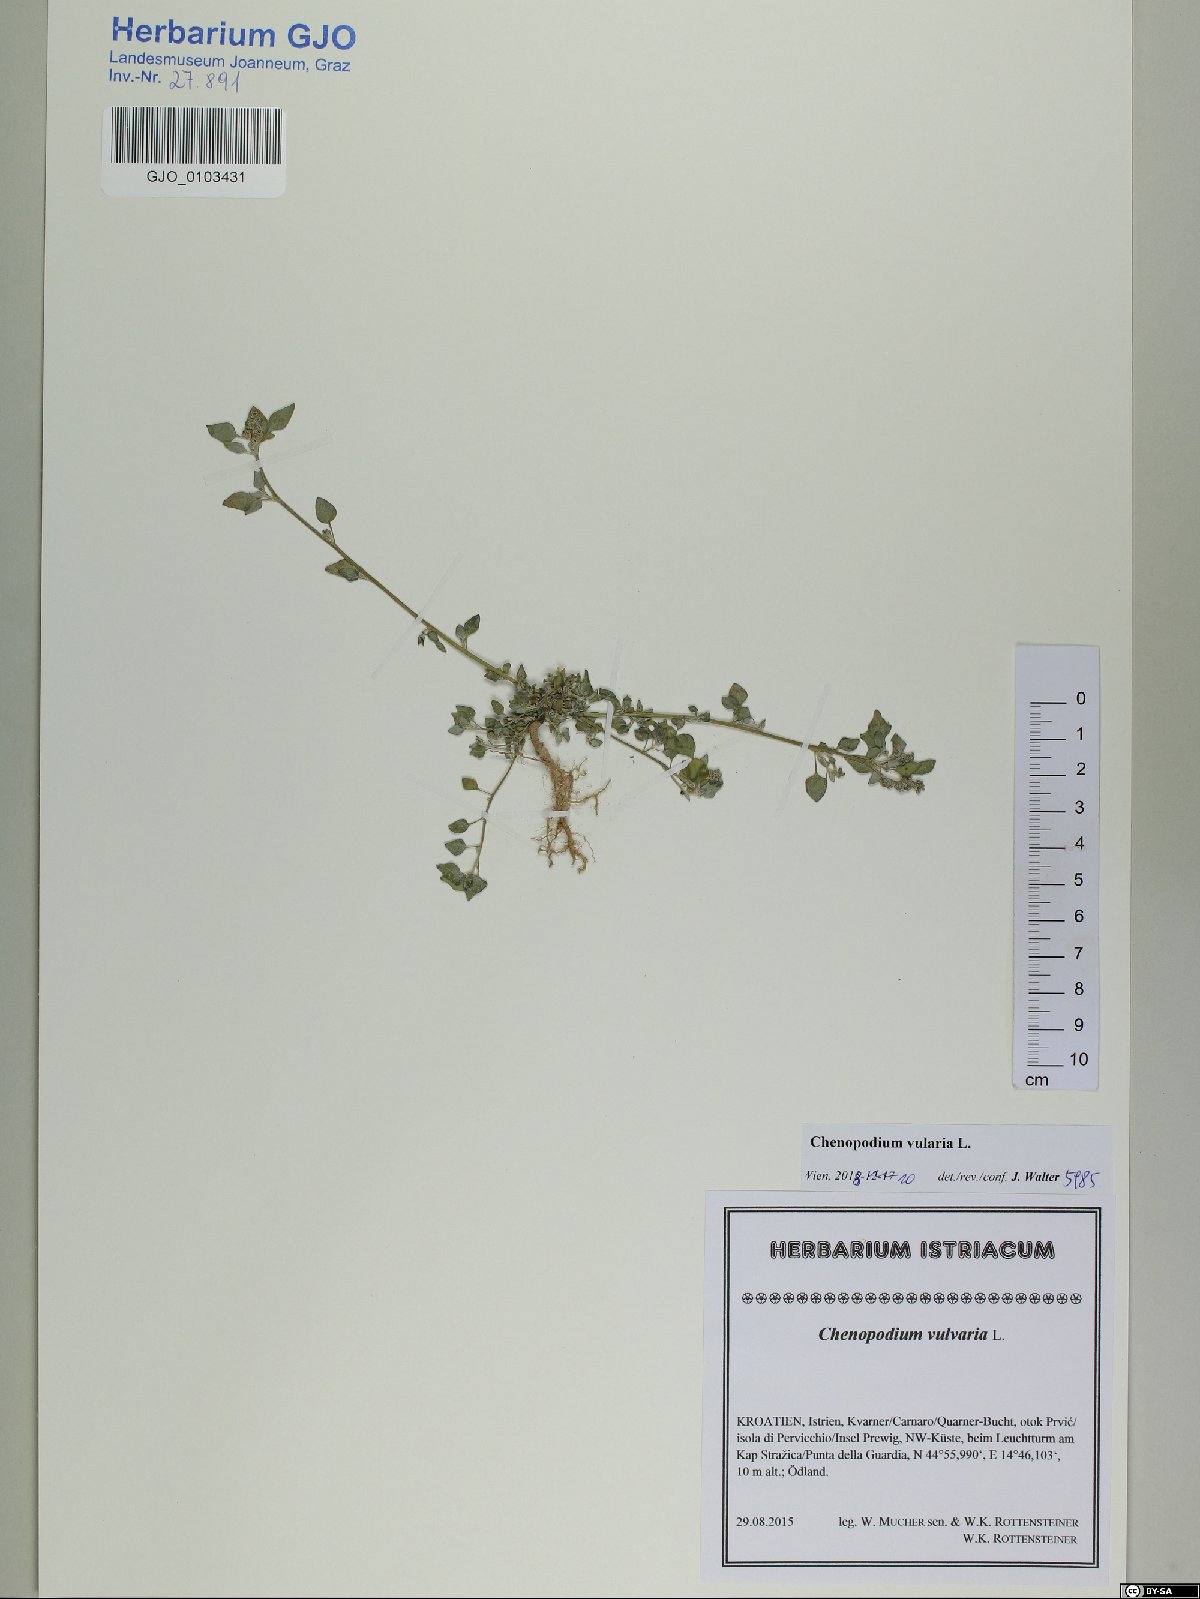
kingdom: Plantae
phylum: Tracheophyta
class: Magnoliopsida
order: Caryophyllales
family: Amaranthaceae
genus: Chenopodium
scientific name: Chenopodium vulvaria
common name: Stinking goosefoot
